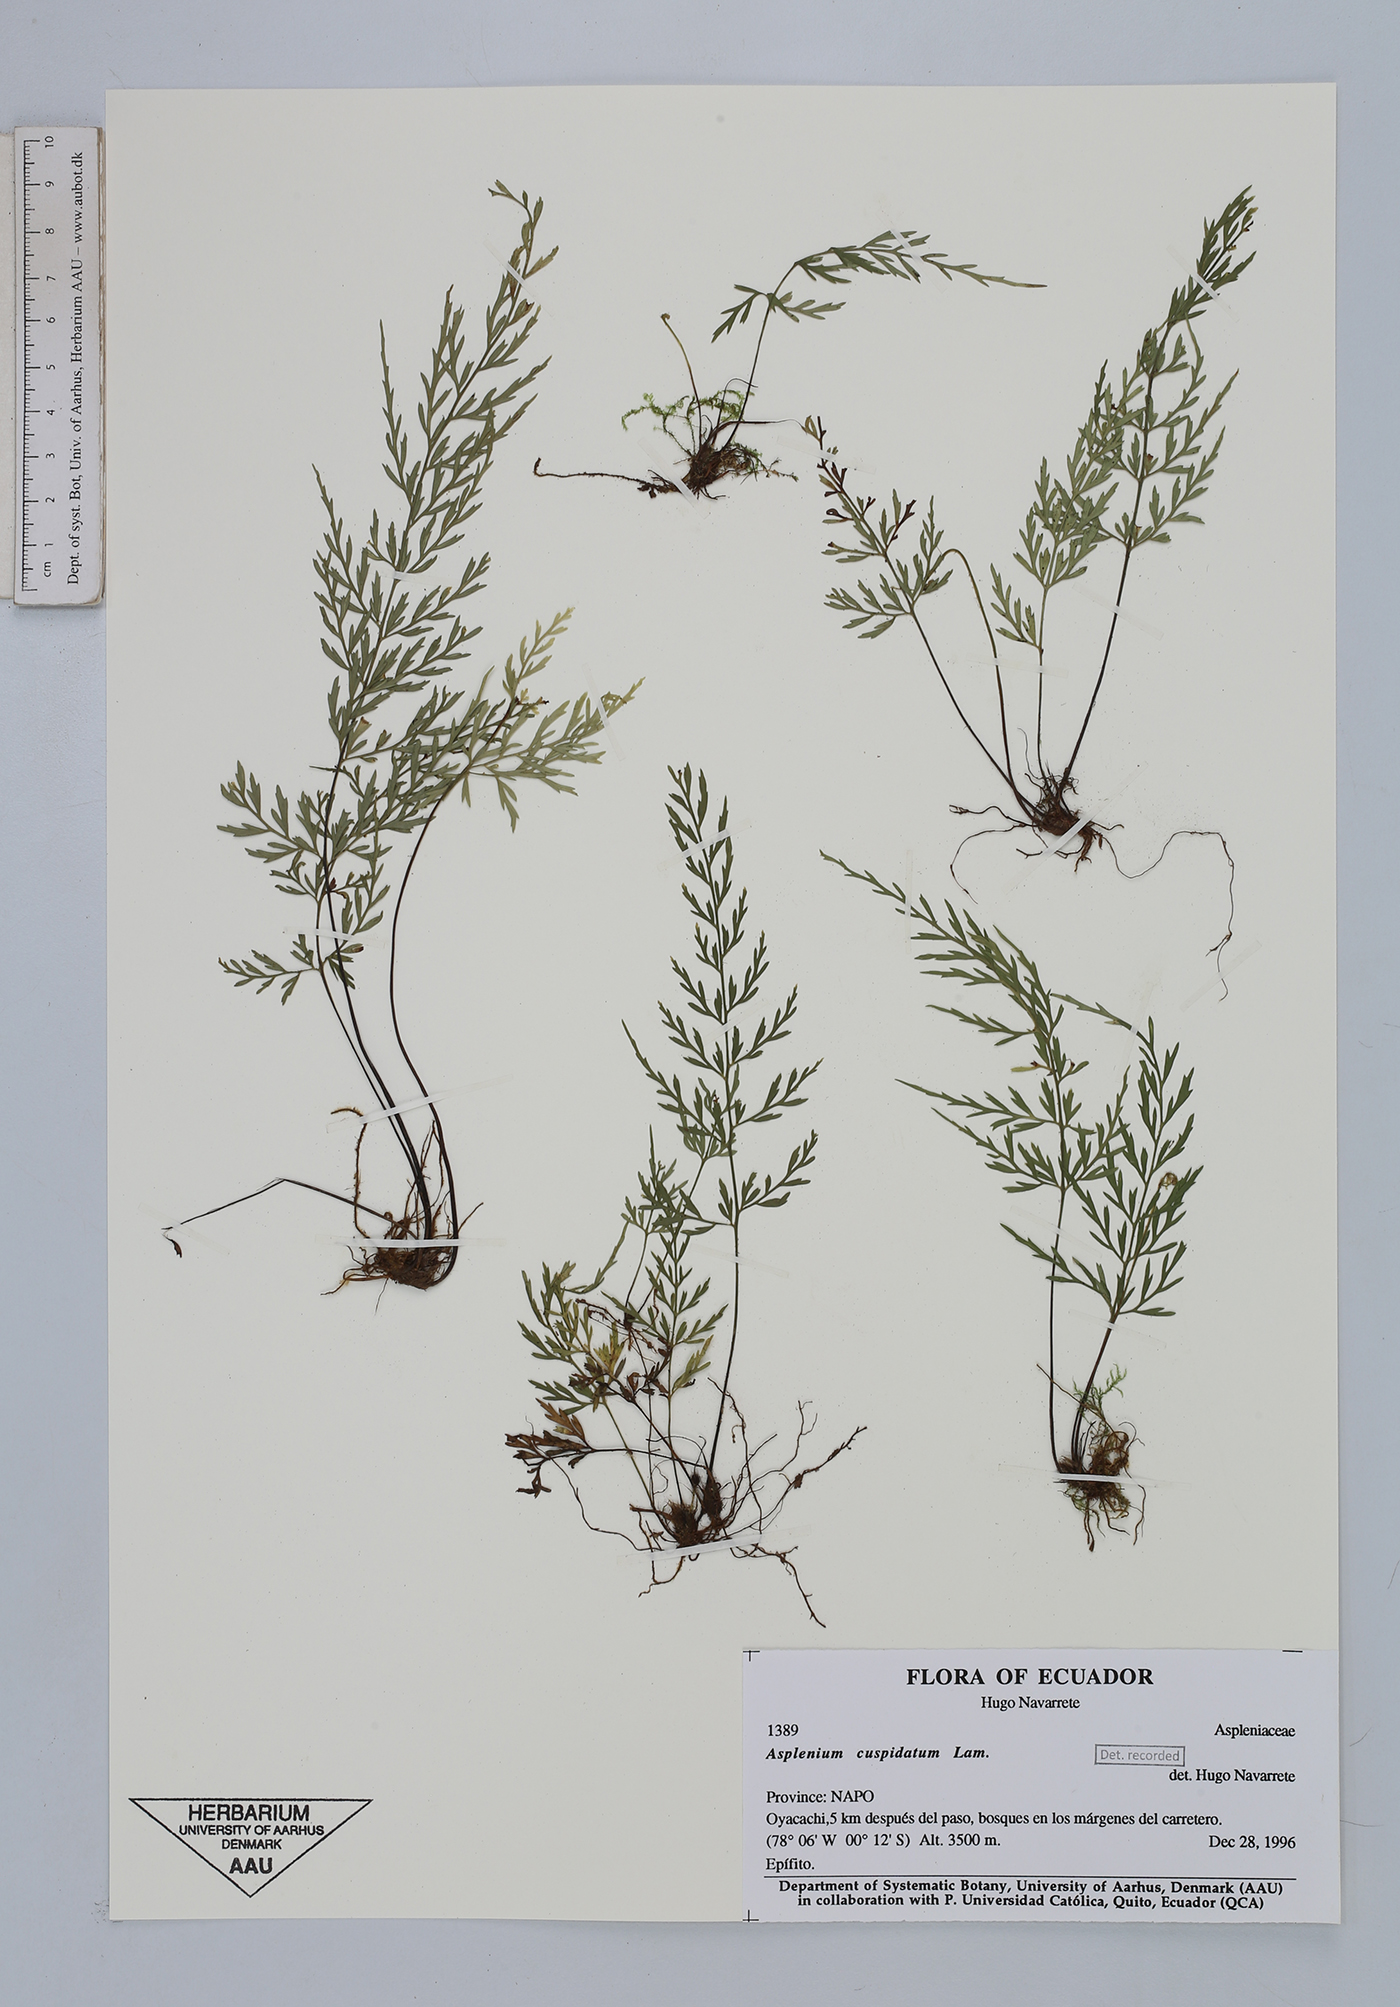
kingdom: Plantae
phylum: Tracheophyta
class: Polypodiopsida
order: Polypodiales
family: Aspleniaceae
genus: Asplenium
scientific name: Asplenium cuspidatum
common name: Eared spleenwort
